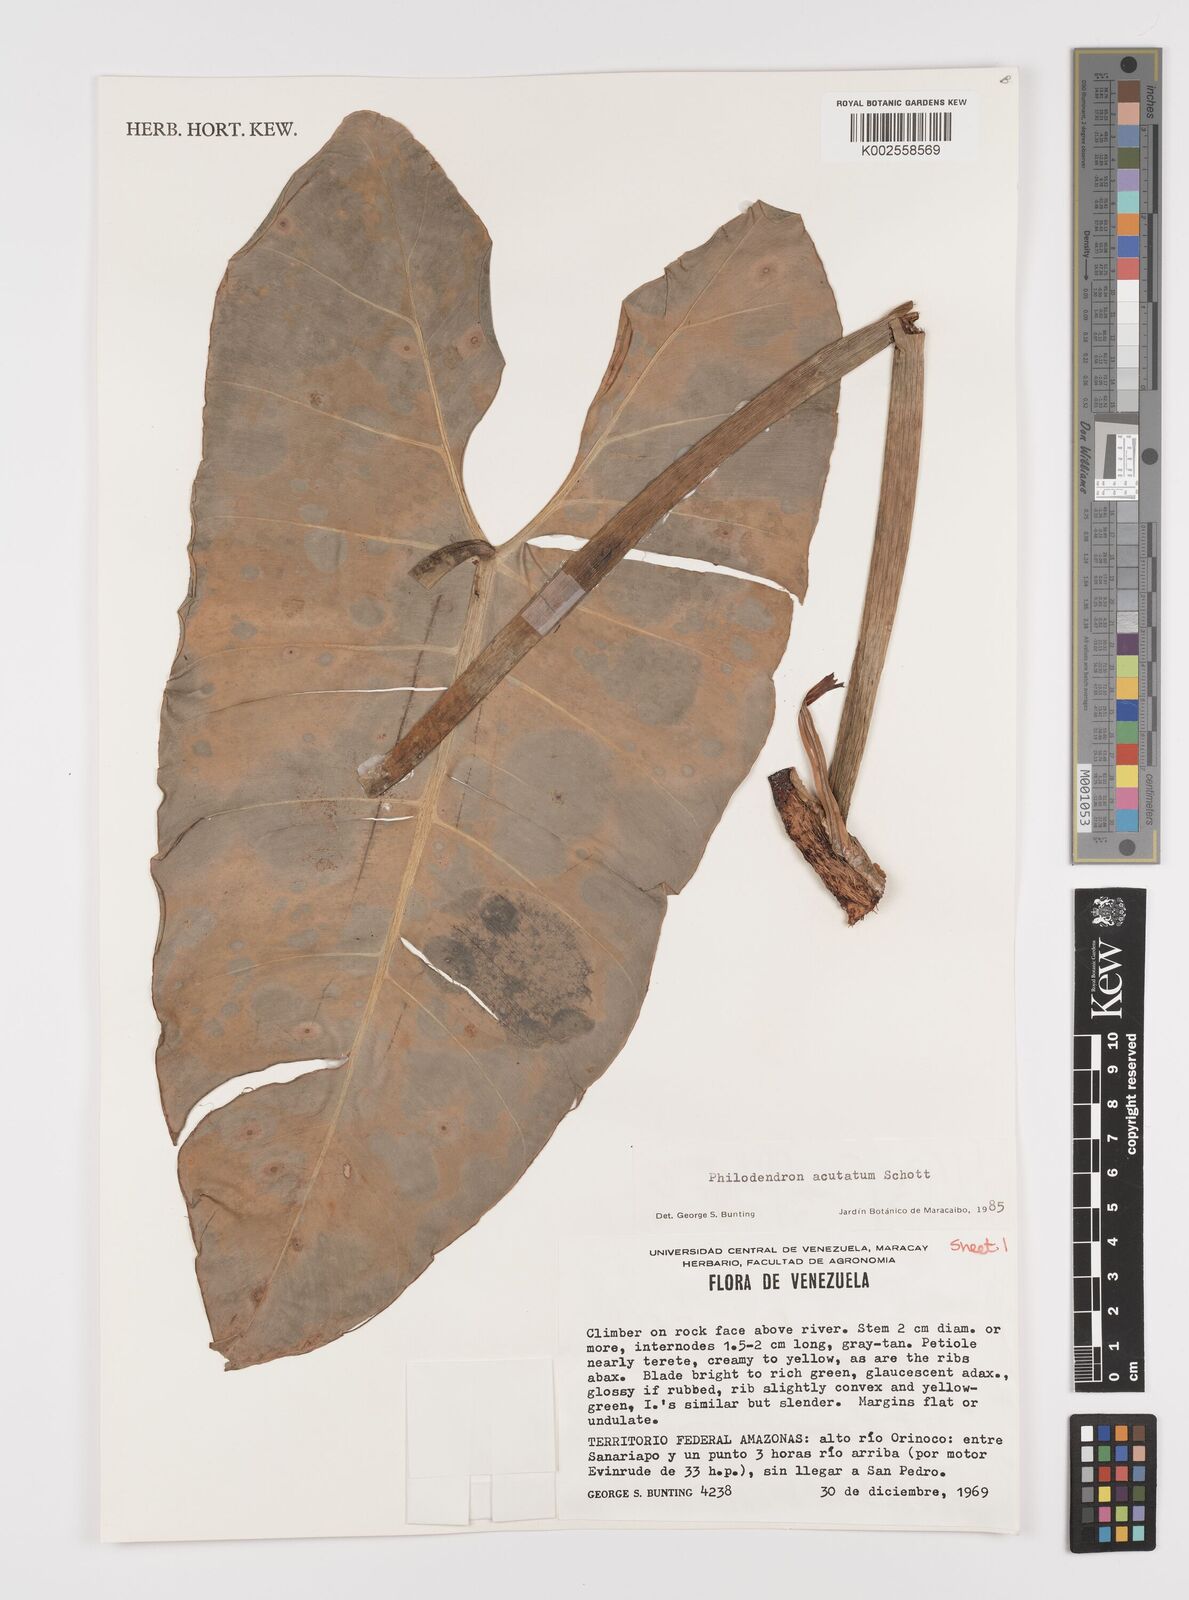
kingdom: Plantae
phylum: Tracheophyta
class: Liliopsida
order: Alismatales
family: Araceae
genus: Philodendron
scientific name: Philodendron quinquenervium
